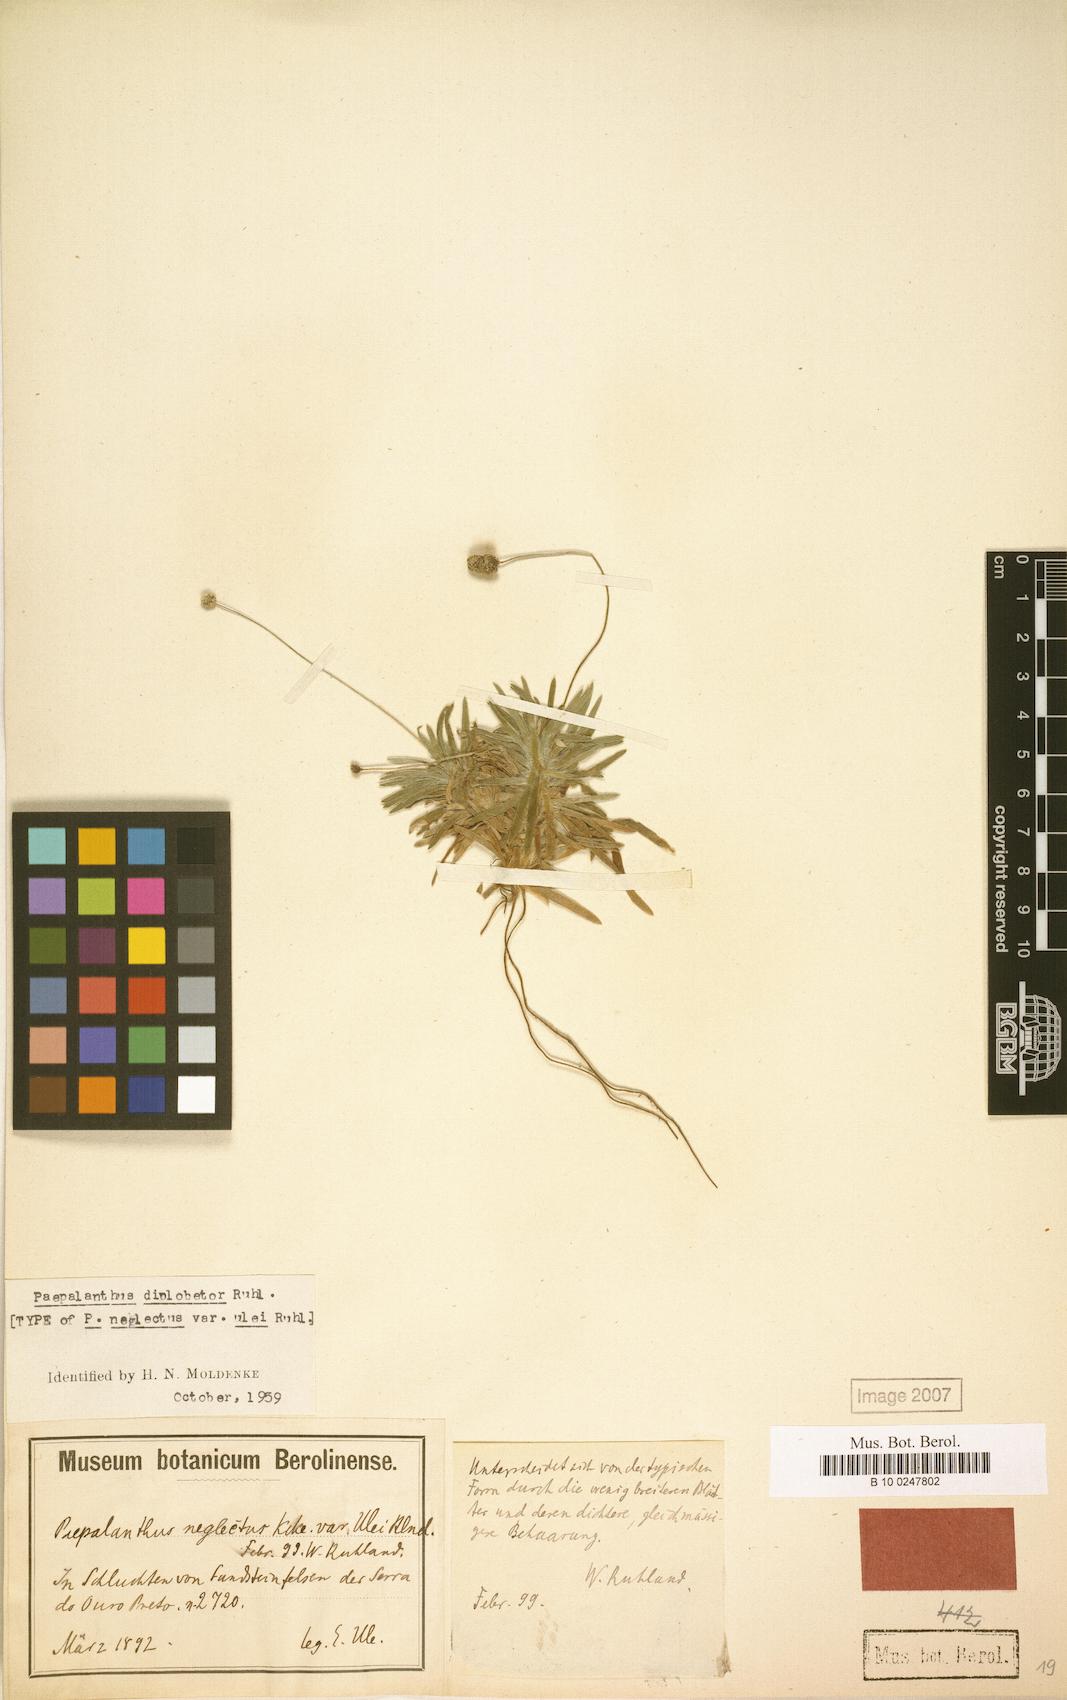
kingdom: Plantae
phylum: Tracheophyta
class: Liliopsida
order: Poales
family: Eriocaulaceae
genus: Paepalanthus
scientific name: Paepalanthus diplobetor
